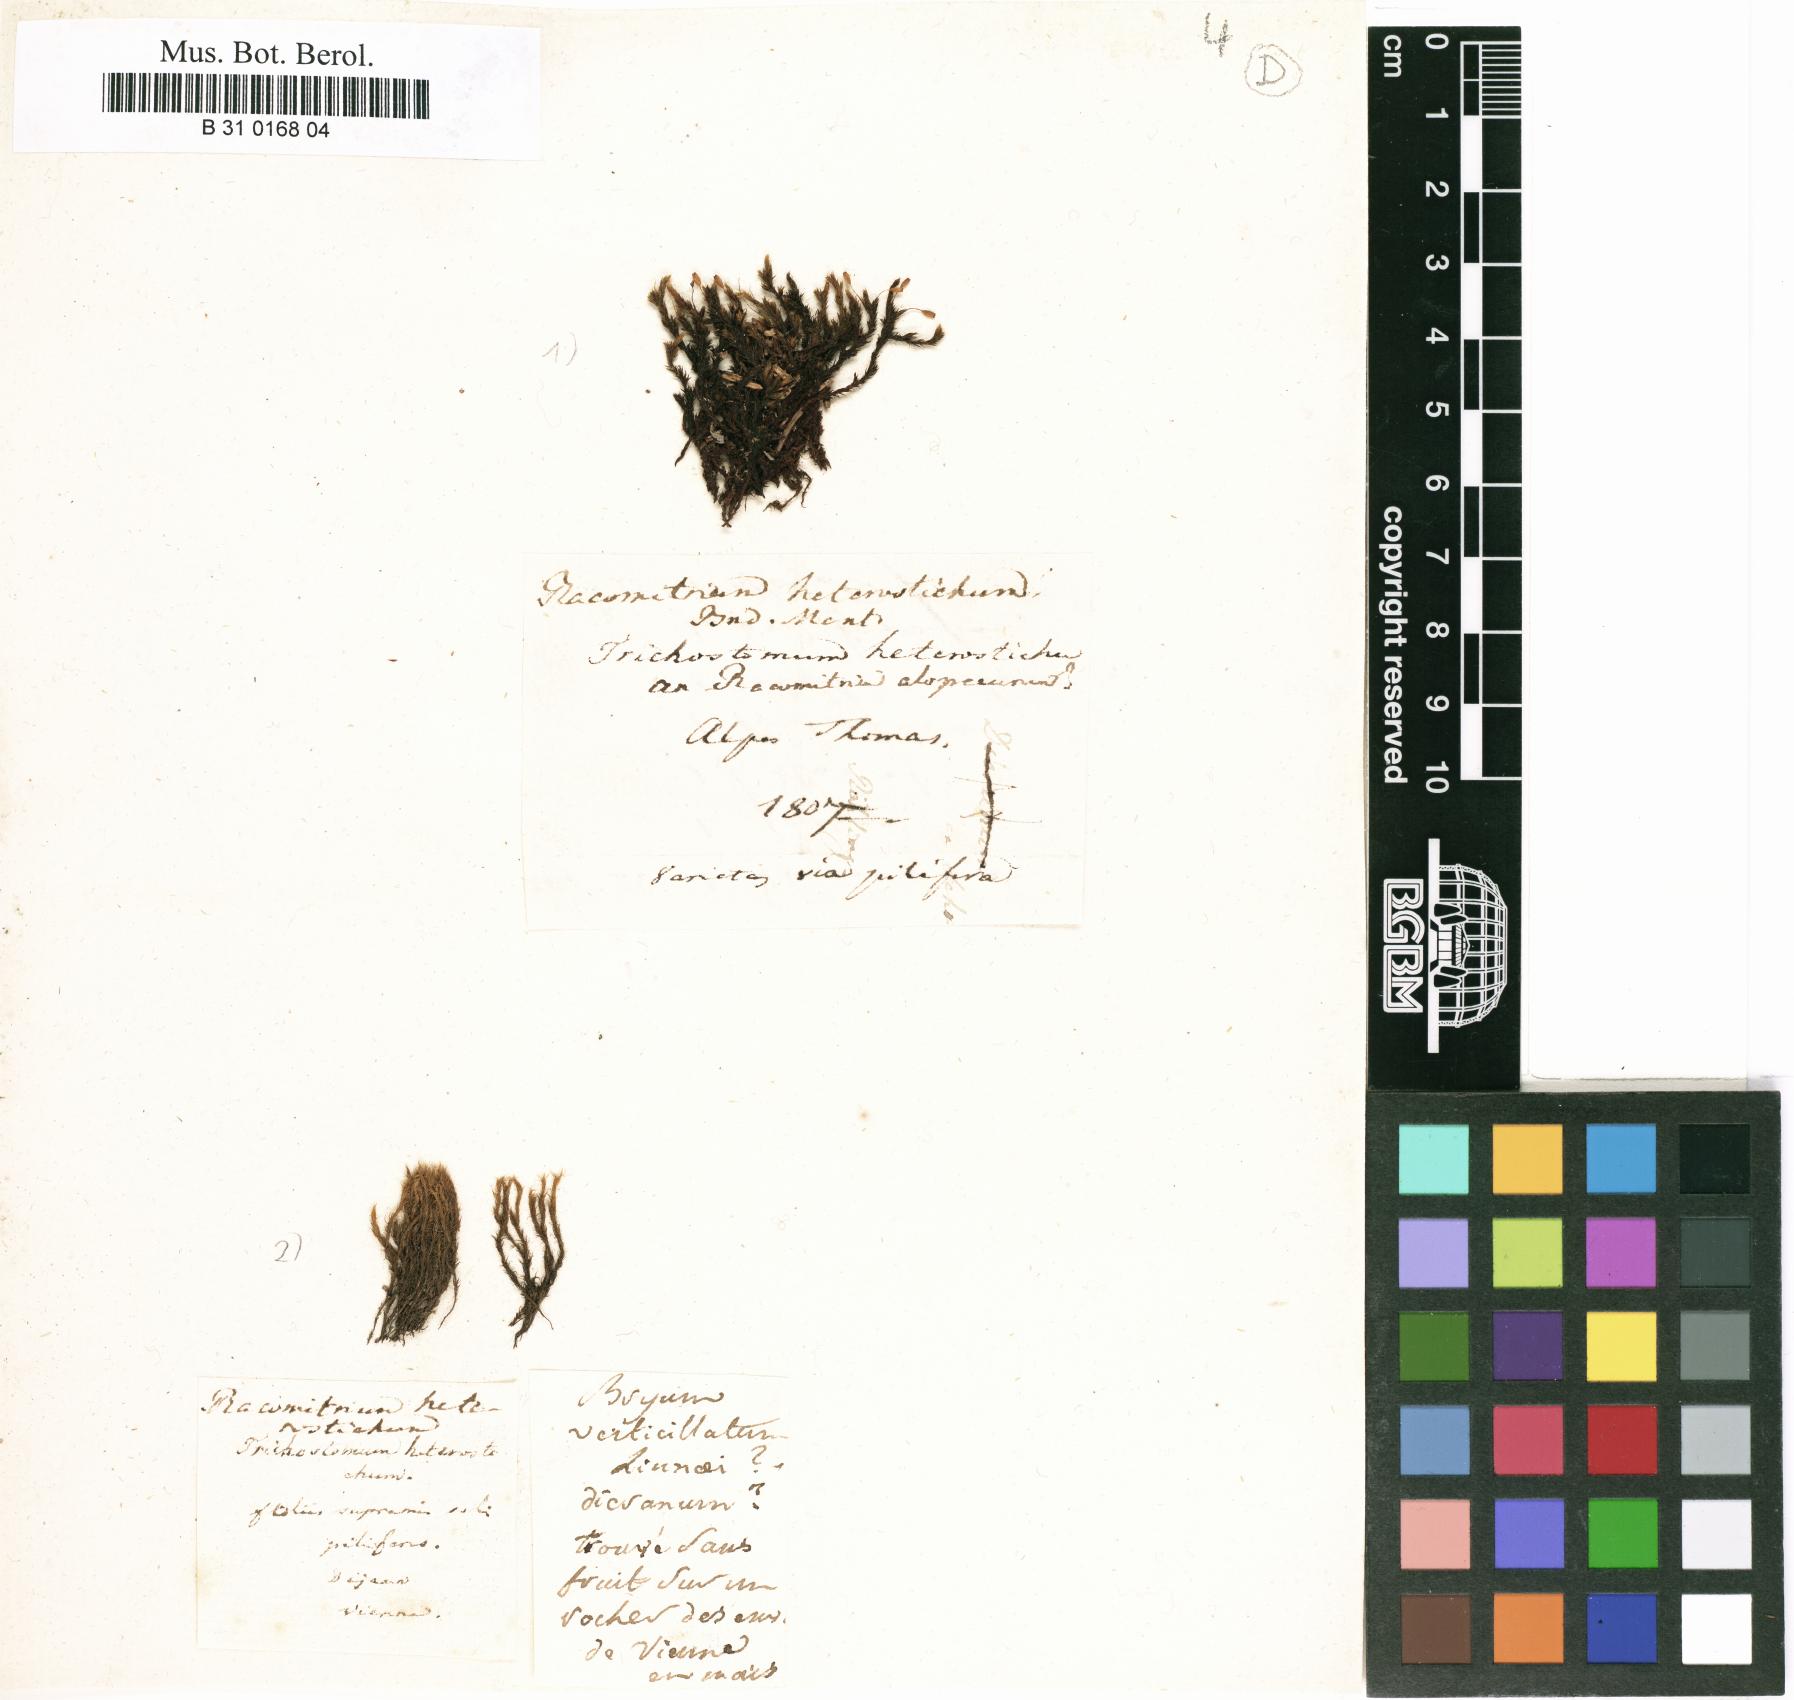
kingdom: Plantae
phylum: Bryophyta
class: Bryopsida
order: Grimmiales
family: Grimmiaceae
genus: Bucklandiella
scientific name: Bucklandiella heterosticha
